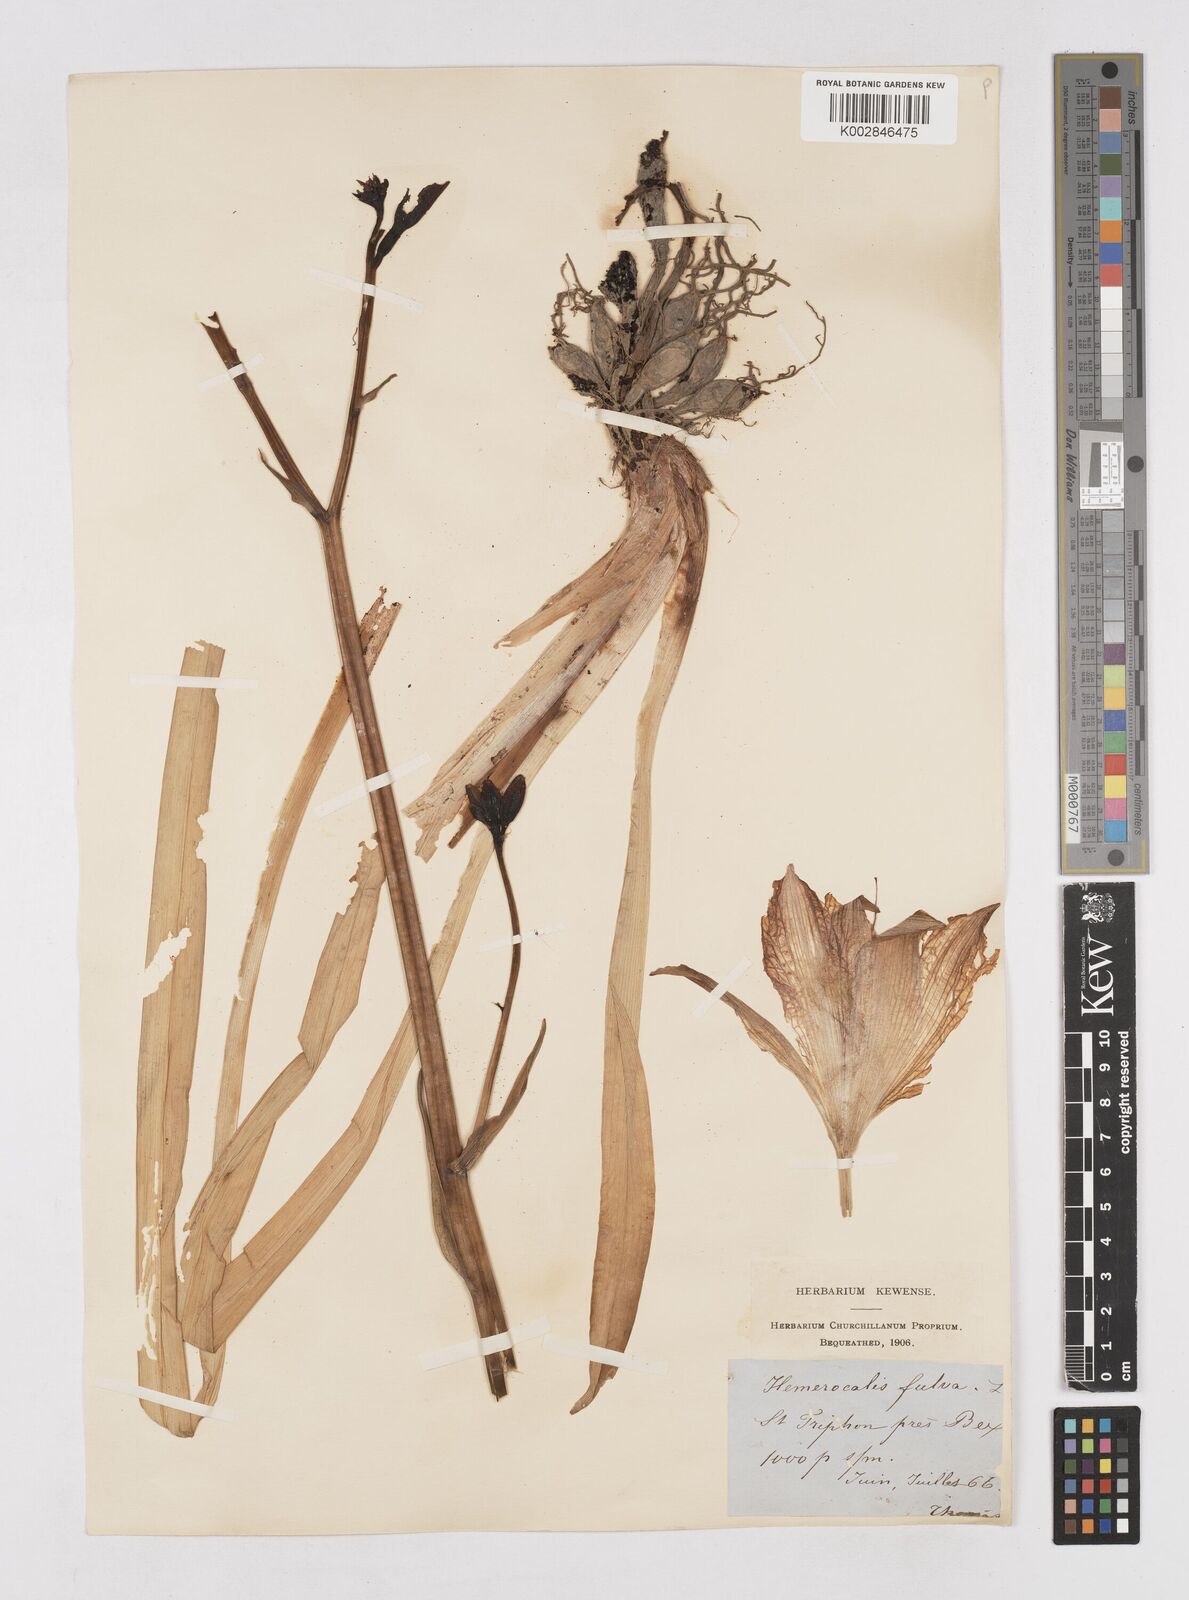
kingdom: Plantae
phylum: Tracheophyta
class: Liliopsida
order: Asparagales
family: Asphodelaceae
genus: Hemerocallis
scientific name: Hemerocallis fulva
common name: Orange day-lily
